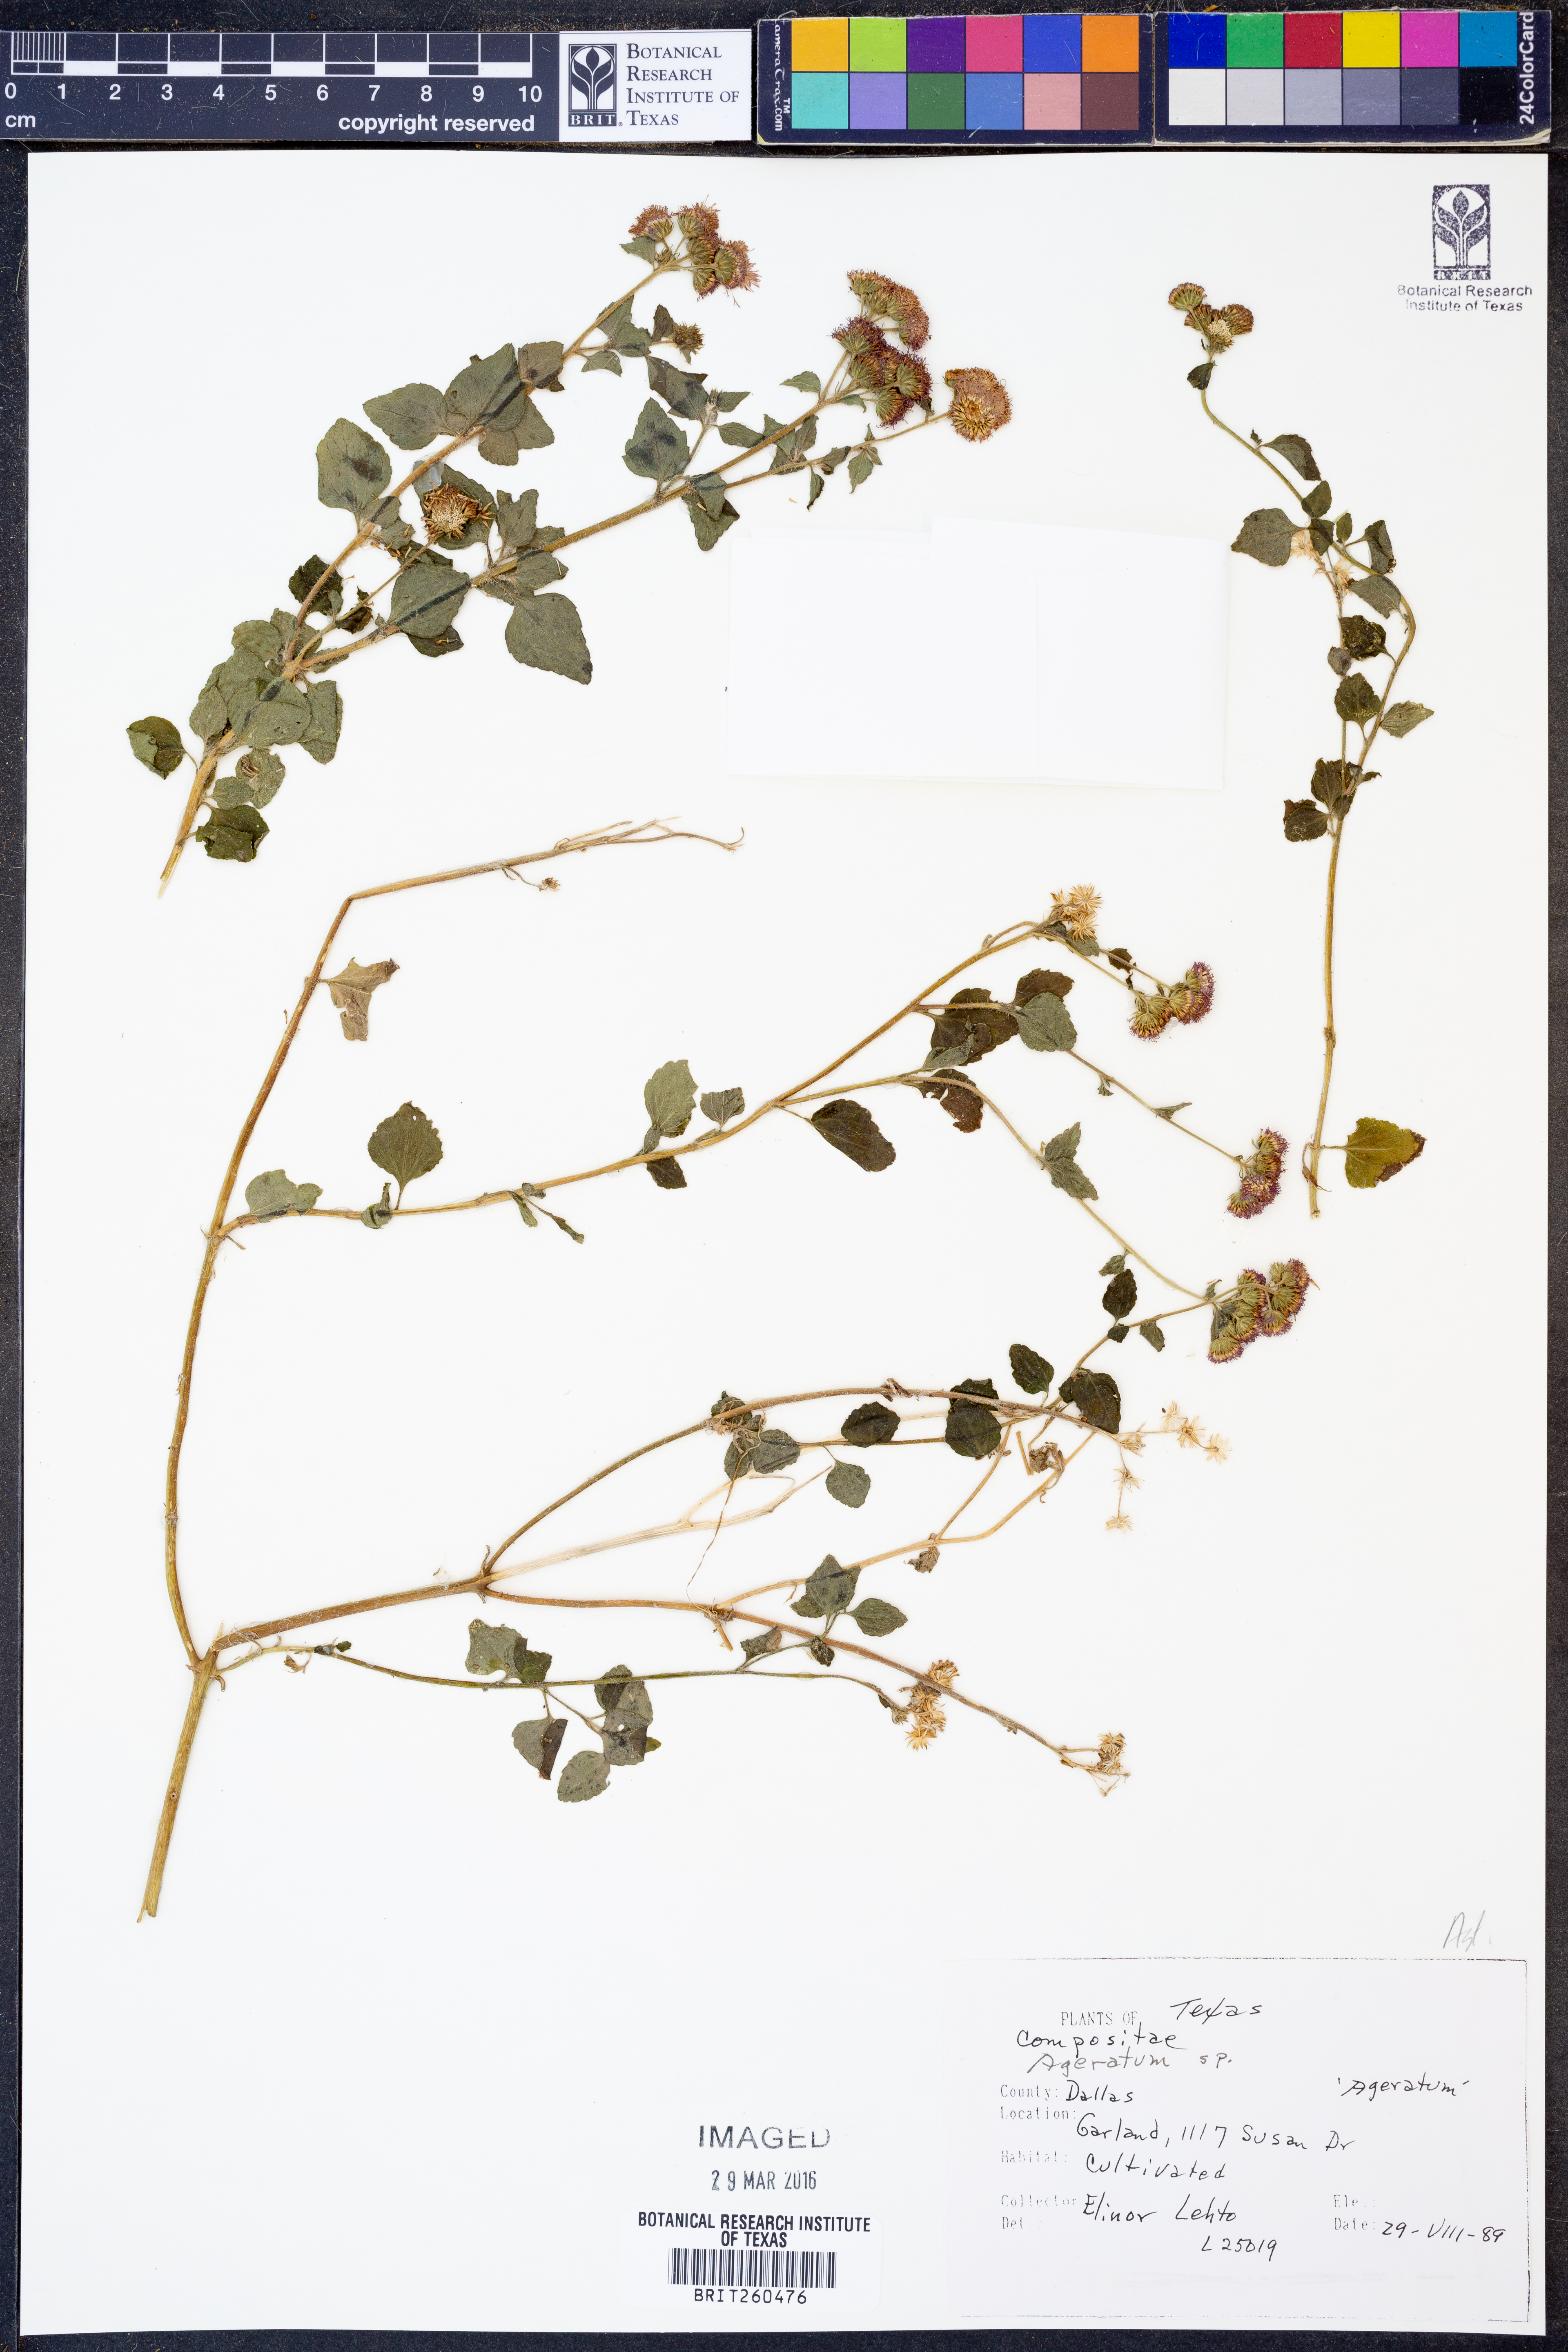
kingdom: Plantae
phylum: Tracheophyta
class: Magnoliopsida
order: Asterales
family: Asteraceae
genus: Ageratum
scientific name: Ageratum
